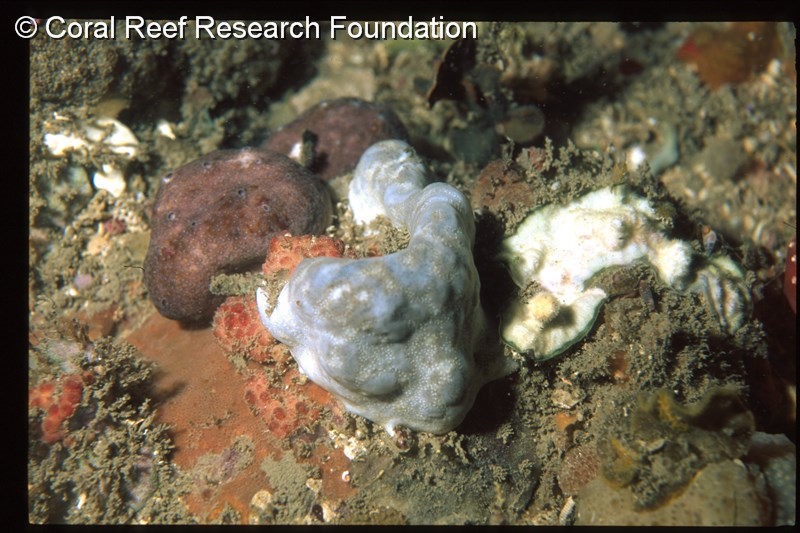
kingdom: Animalia
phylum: Chordata
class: Ascidiacea
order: Aplousobranchia
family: Didemnidae
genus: Polysyncraton
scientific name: Polysyncraton
